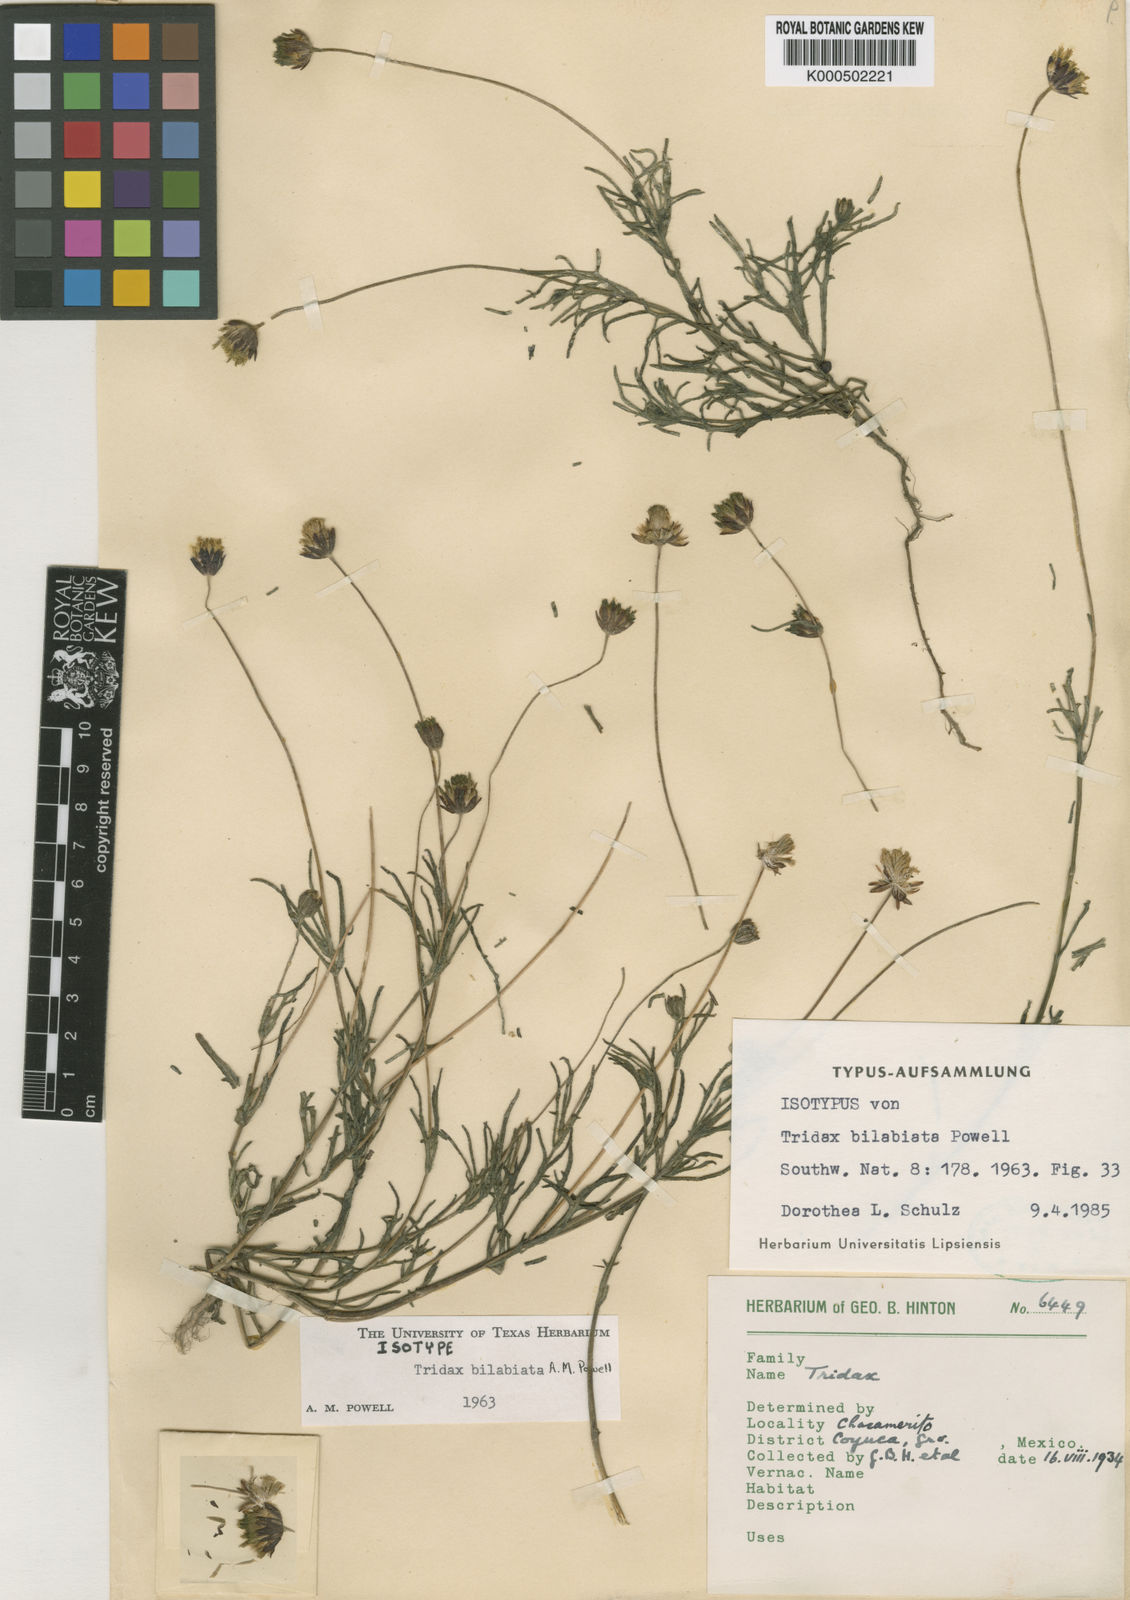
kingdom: Plantae
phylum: Tracheophyta
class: Magnoliopsida
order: Asterales
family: Asteraceae
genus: Tridax
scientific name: Tridax bilabiata
